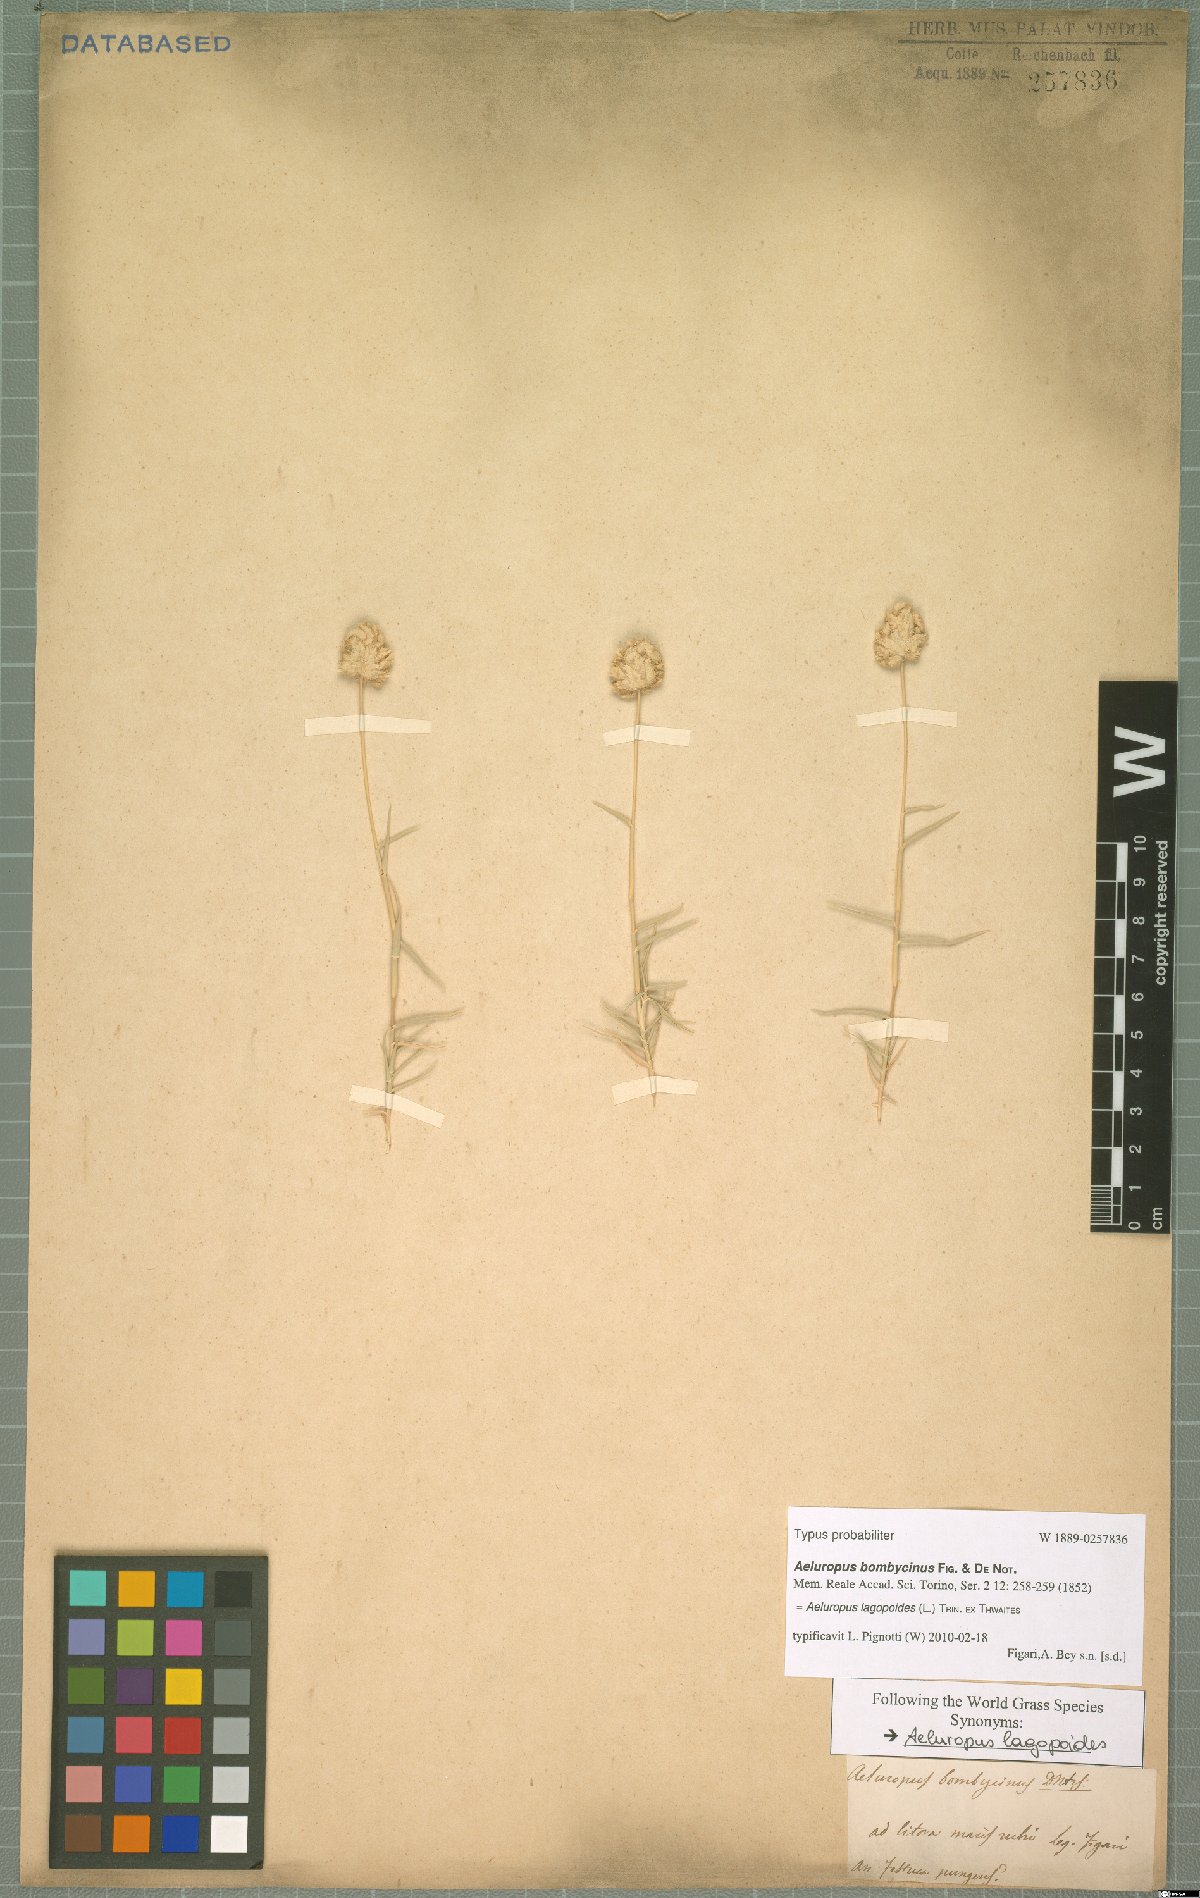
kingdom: Plantae
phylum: Tracheophyta
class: Liliopsida
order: Poales
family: Poaceae
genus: Aeluropus
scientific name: Aeluropus lagopoides
